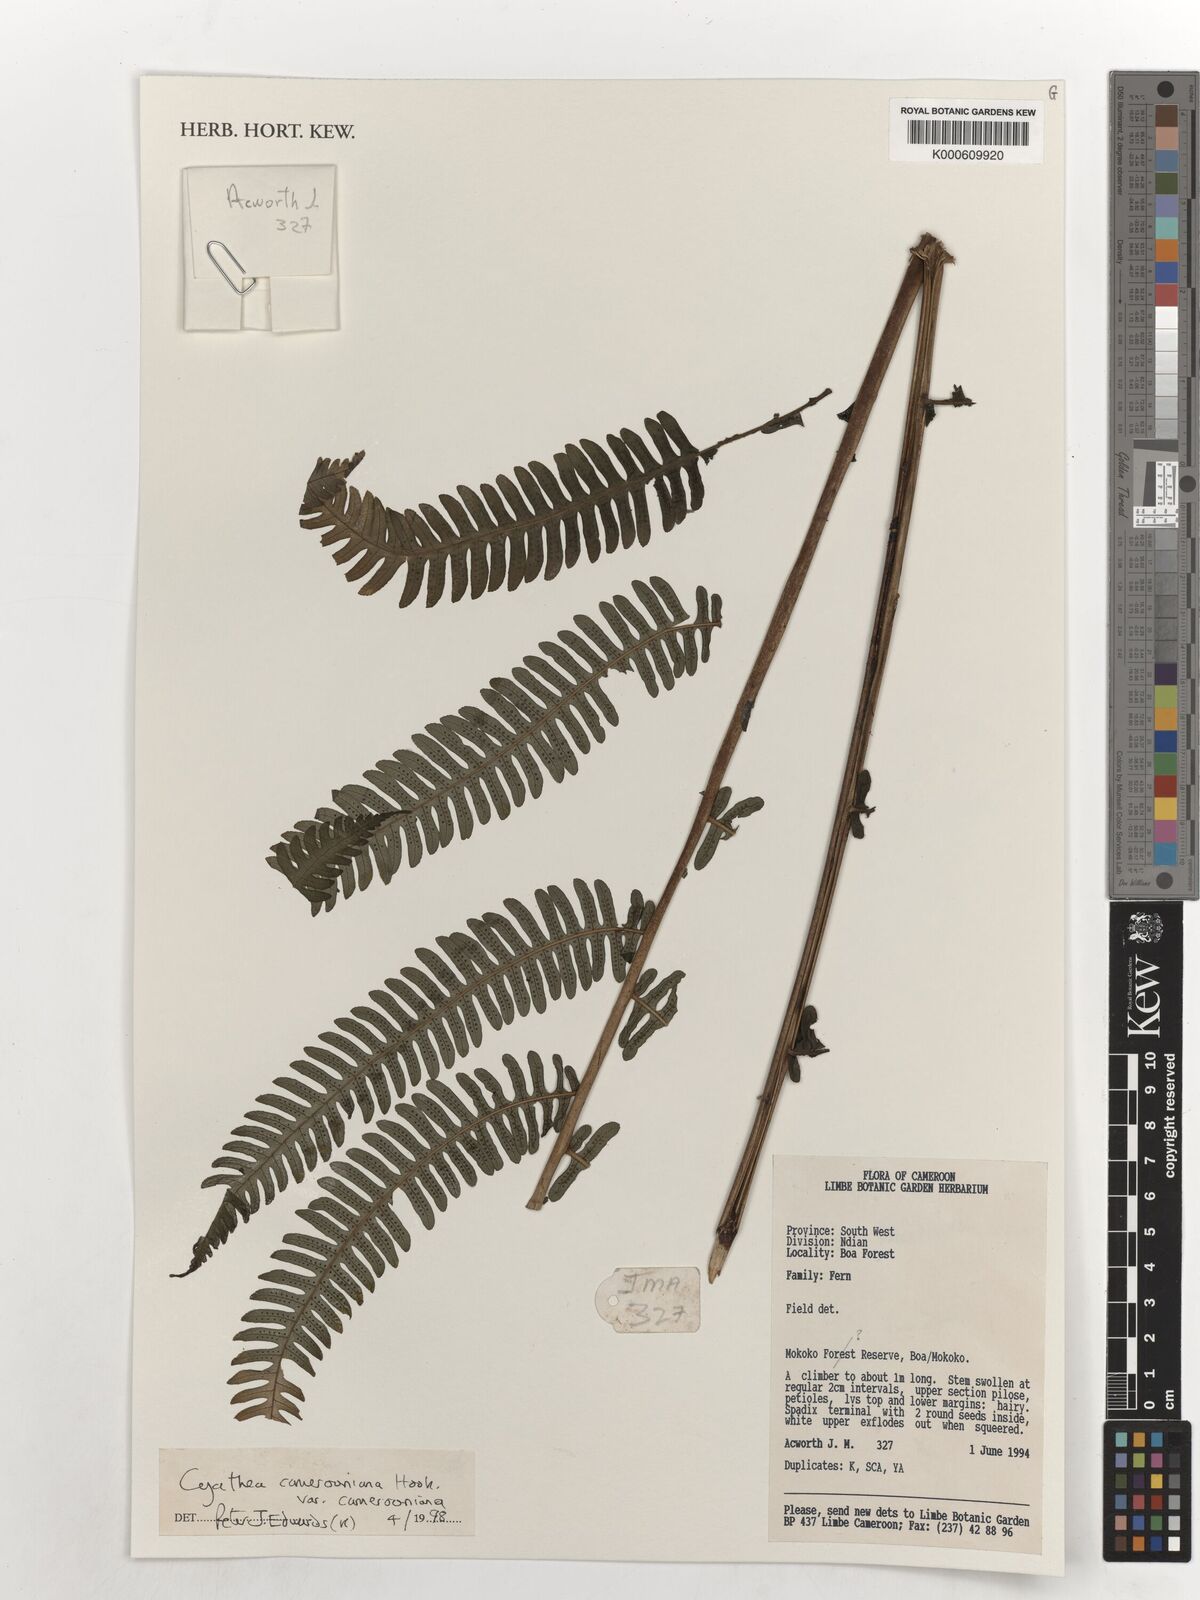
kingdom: Plantae
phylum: Tracheophyta
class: Polypodiopsida
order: Cyatheales
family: Cyatheaceae
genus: Alsophila
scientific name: Alsophila camerooniana
